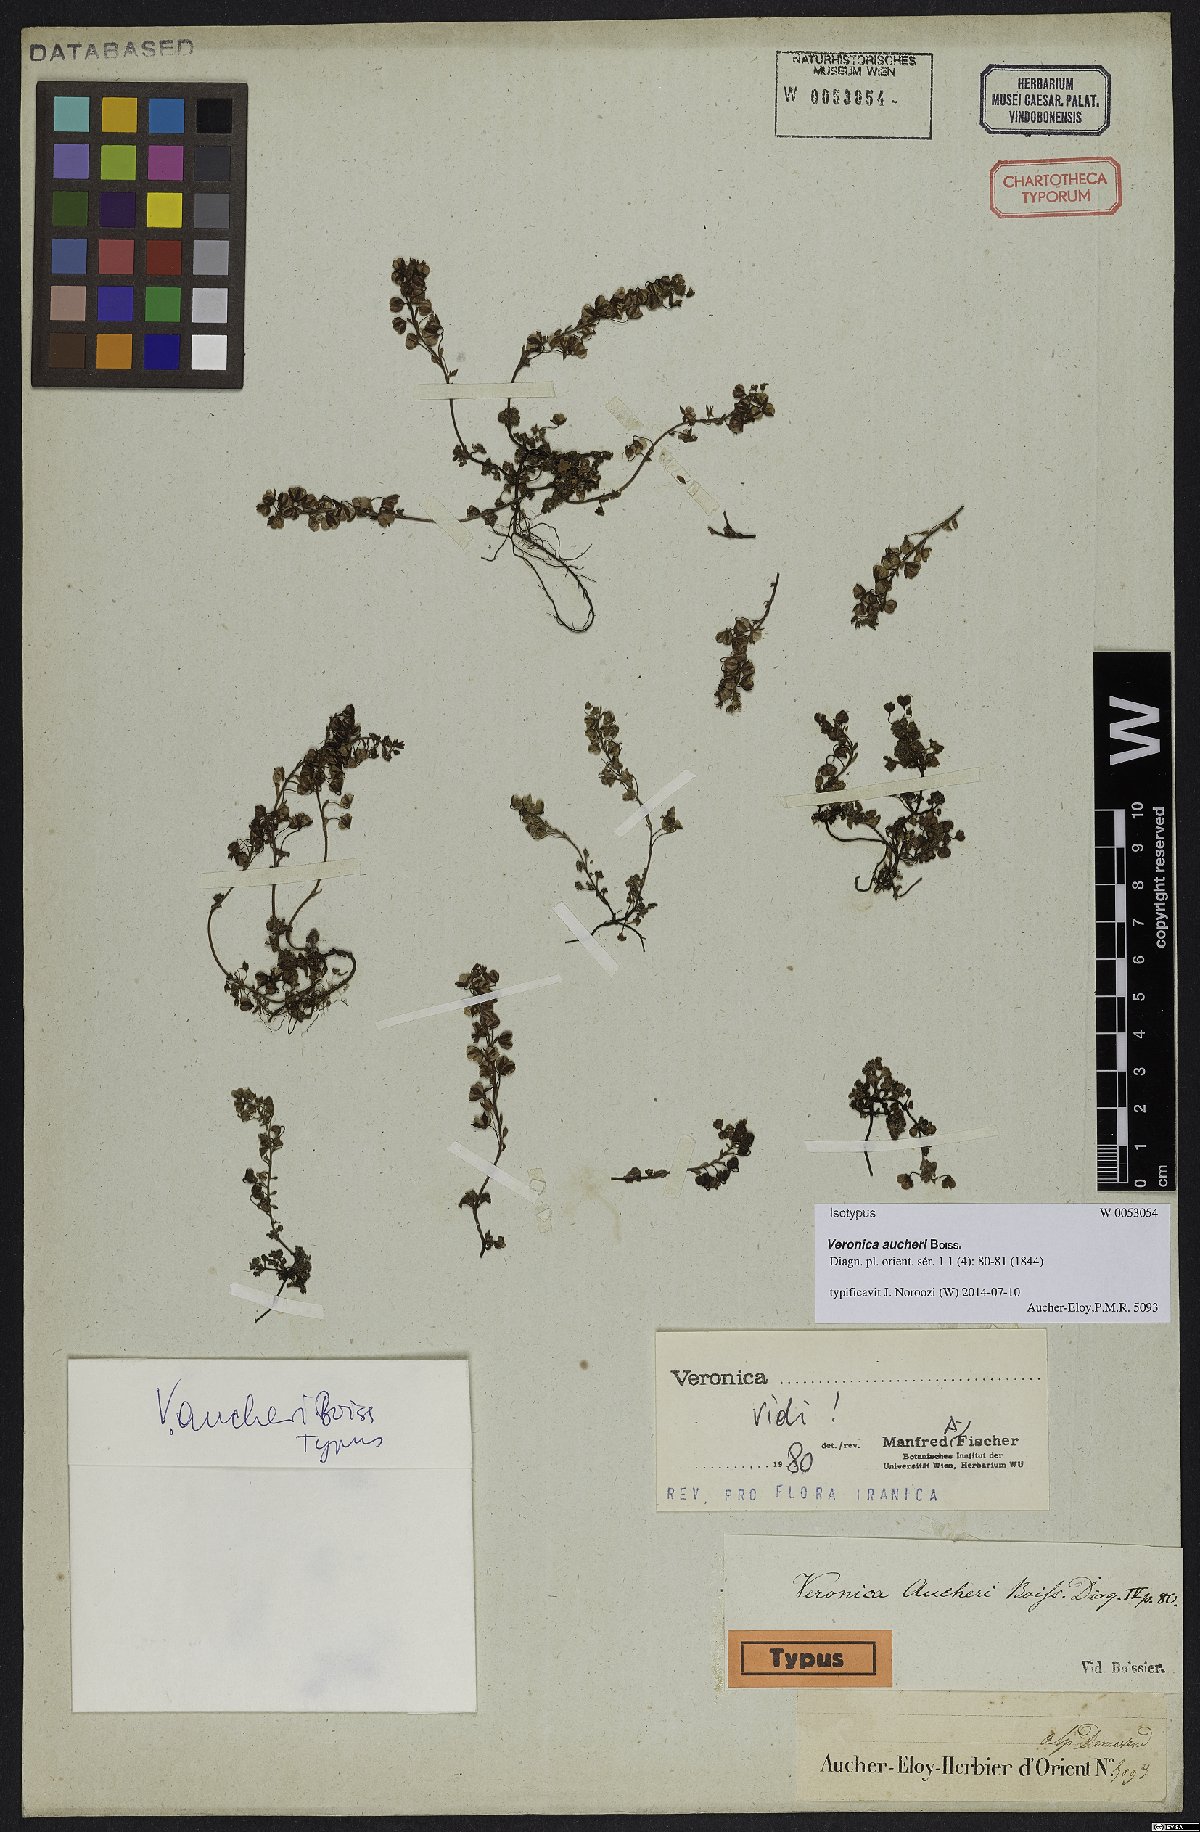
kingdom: Plantae
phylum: Tracheophyta
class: Magnoliopsida
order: Lamiales
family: Plantaginaceae
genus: Veronica
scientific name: Veronica aucheri
